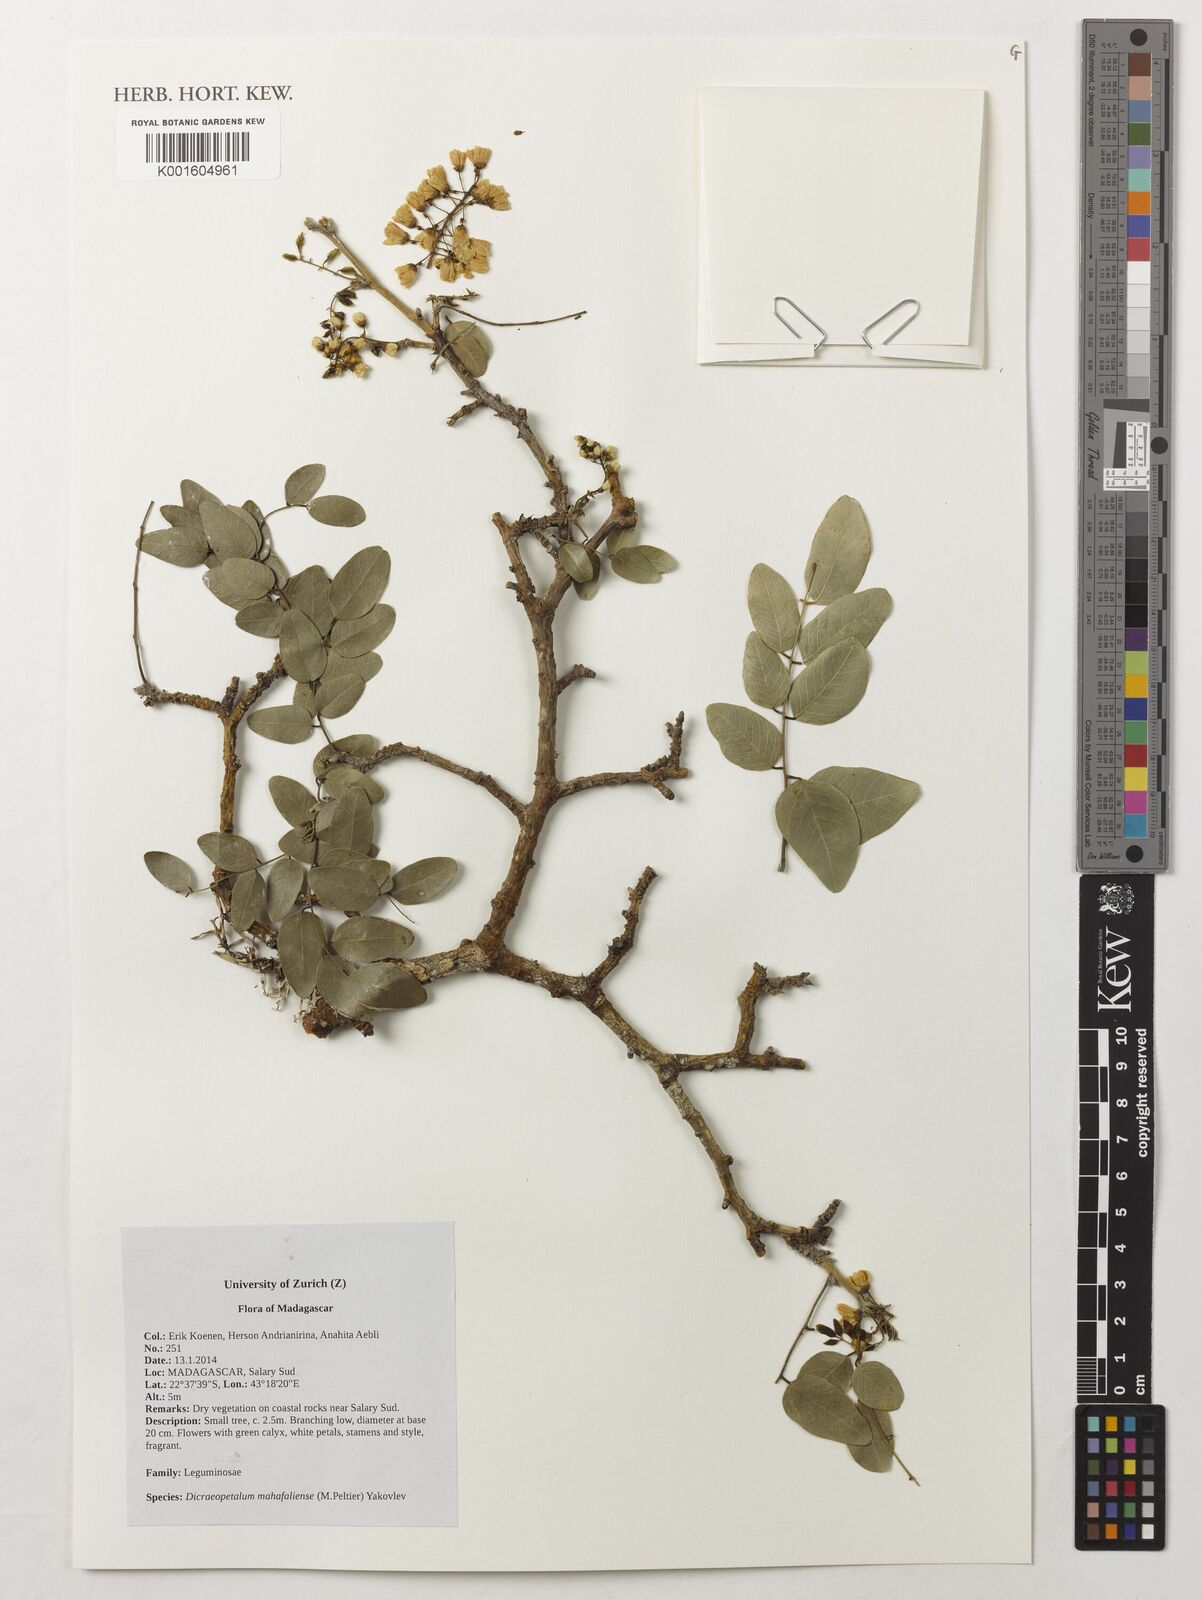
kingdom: Plantae
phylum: Tracheophyta
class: Magnoliopsida
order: Fabales
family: Fabaceae
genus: Dicraeopetalum
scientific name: Dicraeopetalum mahafaliense
